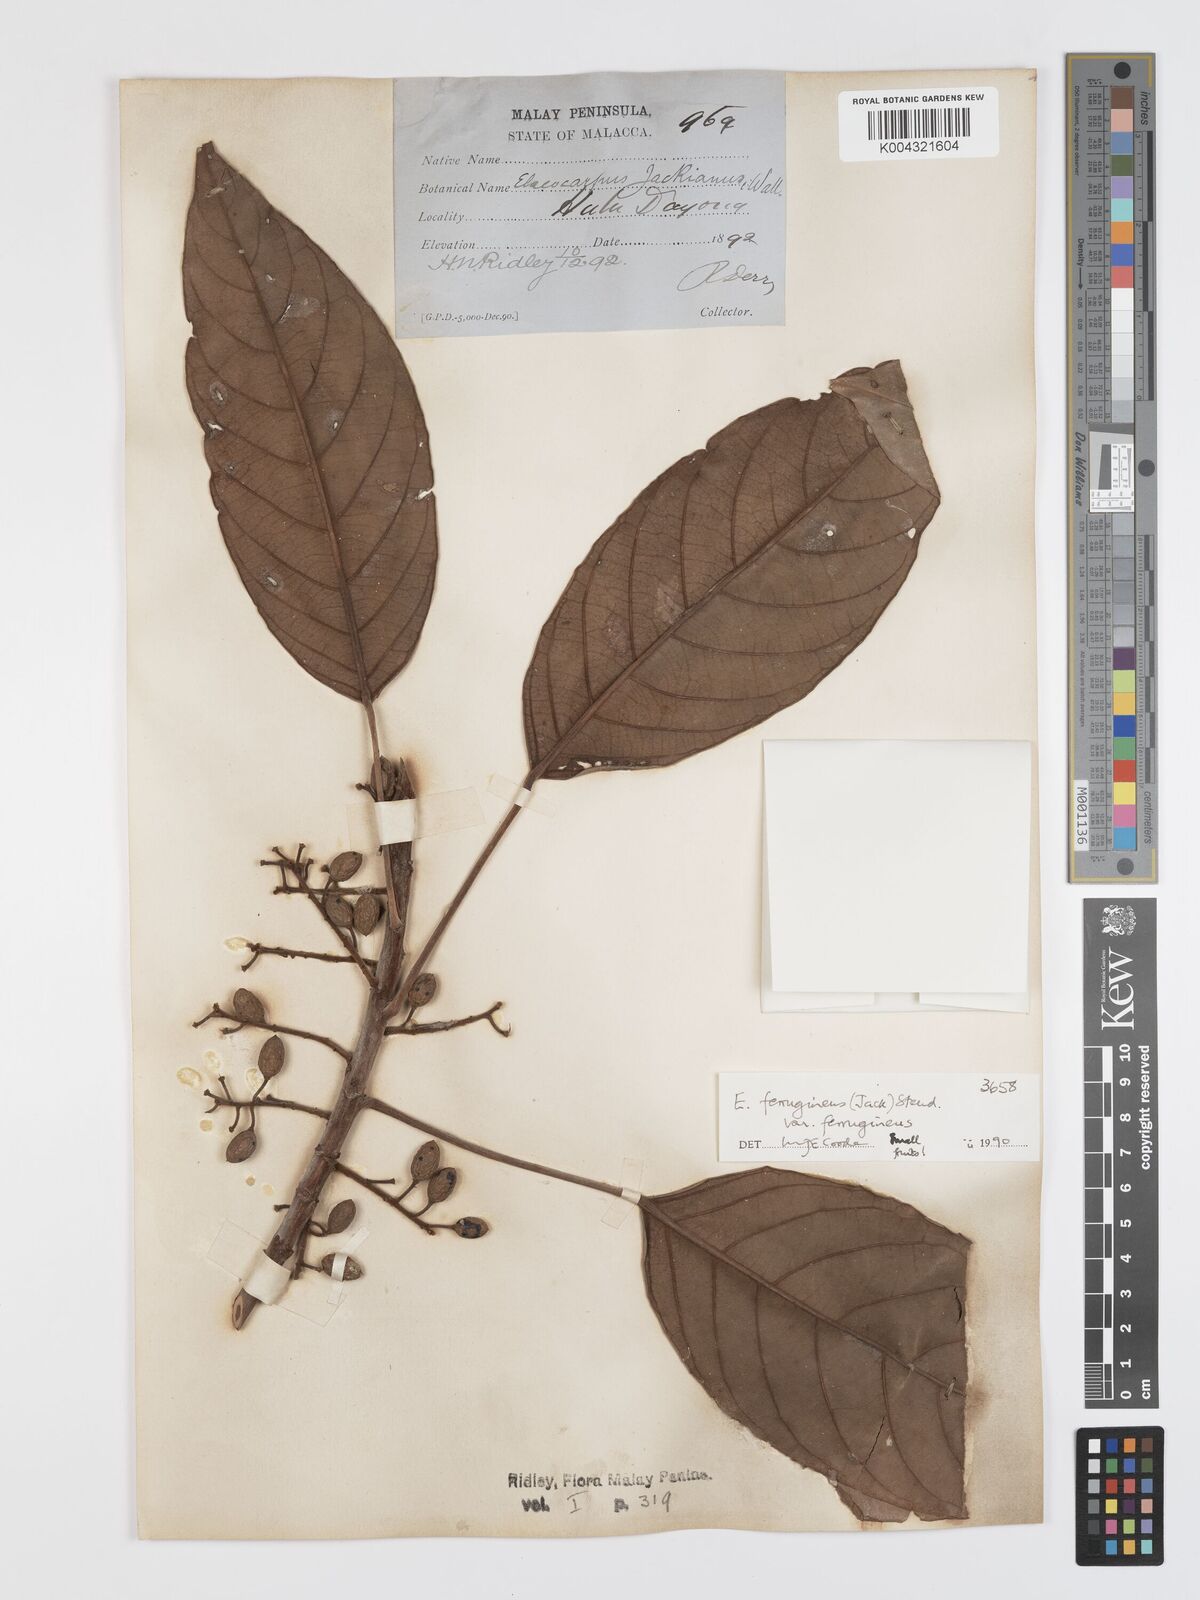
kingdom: Plantae
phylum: Tracheophyta
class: Magnoliopsida
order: Oxalidales
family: Elaeocarpaceae
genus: Elaeocarpus
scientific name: Elaeocarpus ferrugineus
